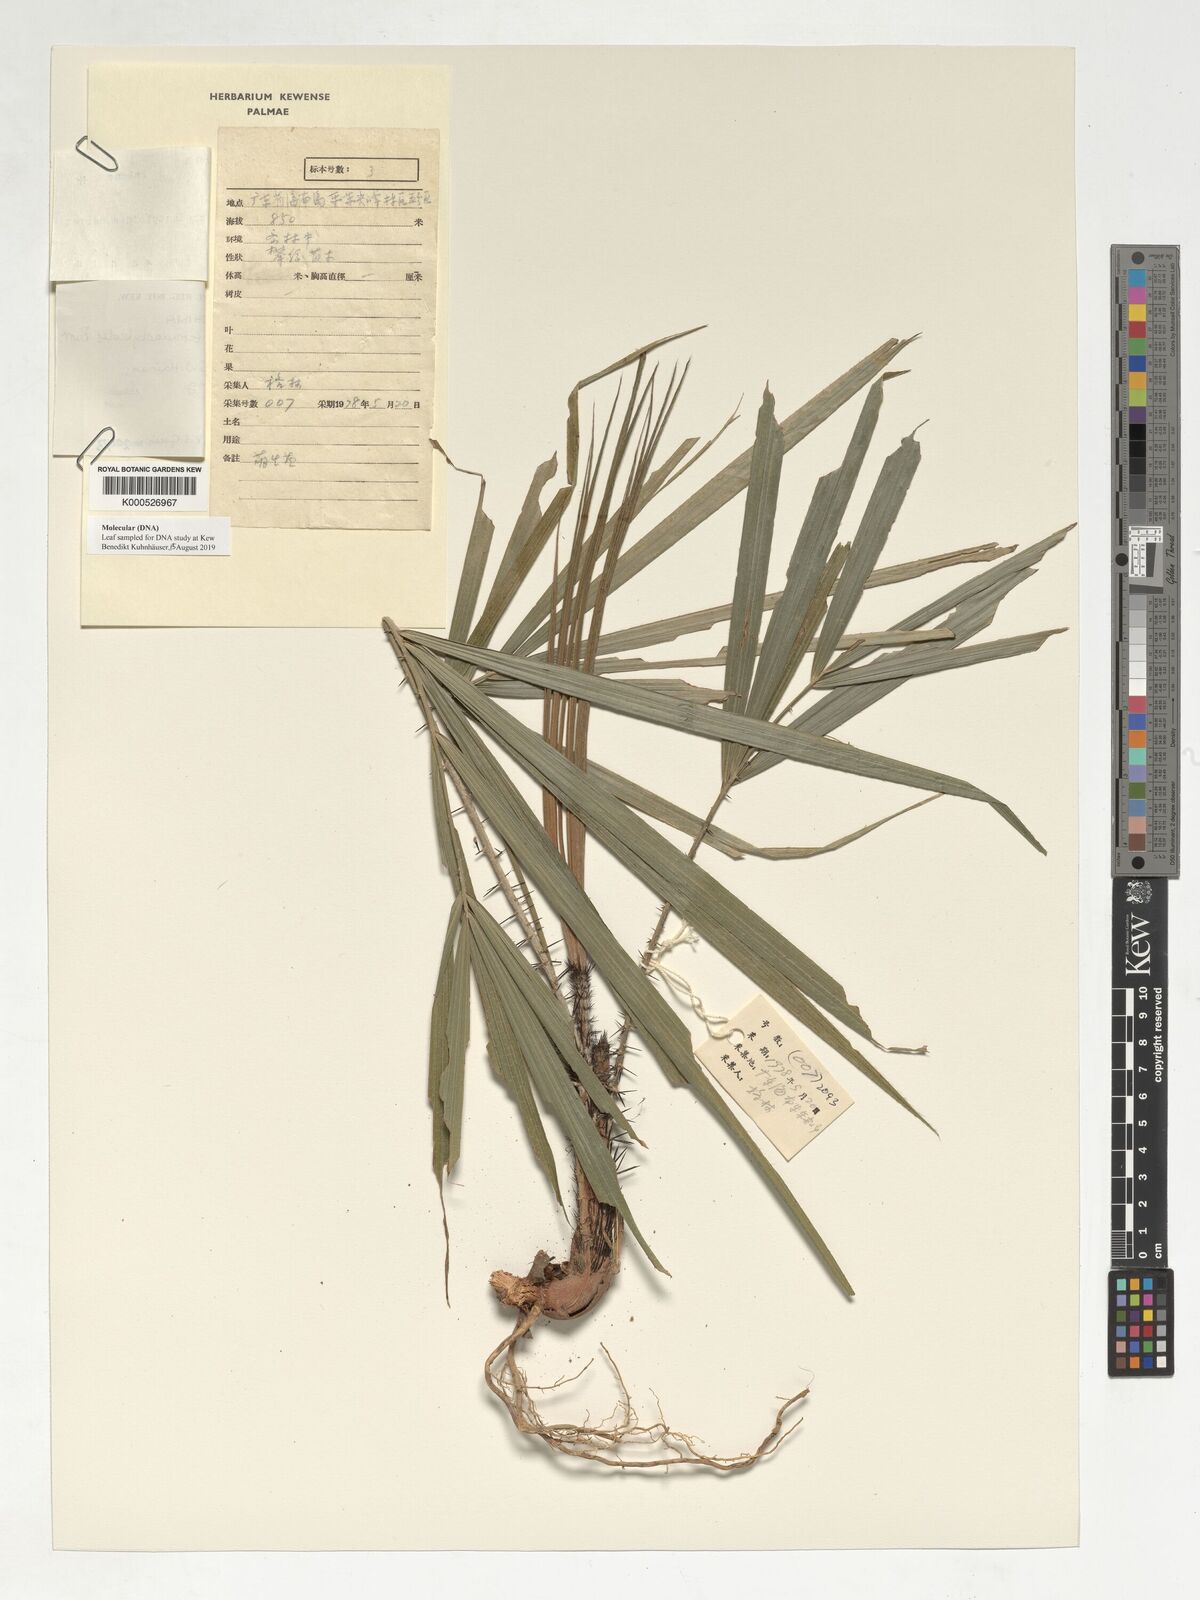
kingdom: Plantae
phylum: Tracheophyta
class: Liliopsida
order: Arecales
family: Arecaceae
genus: Calamus
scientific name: Calamus rhabdocladus
